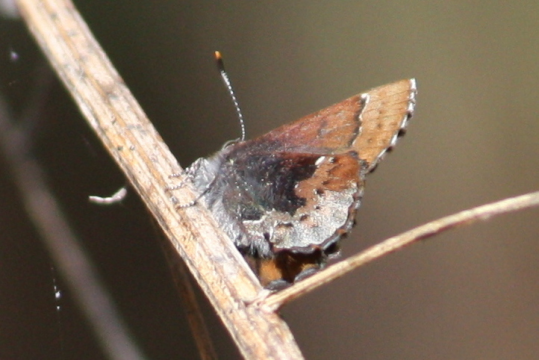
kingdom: Animalia
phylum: Arthropoda
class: Insecta
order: Lepidoptera
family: Lycaenidae
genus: Incisalia
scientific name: Incisalia henrici
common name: Henry's Elfin
